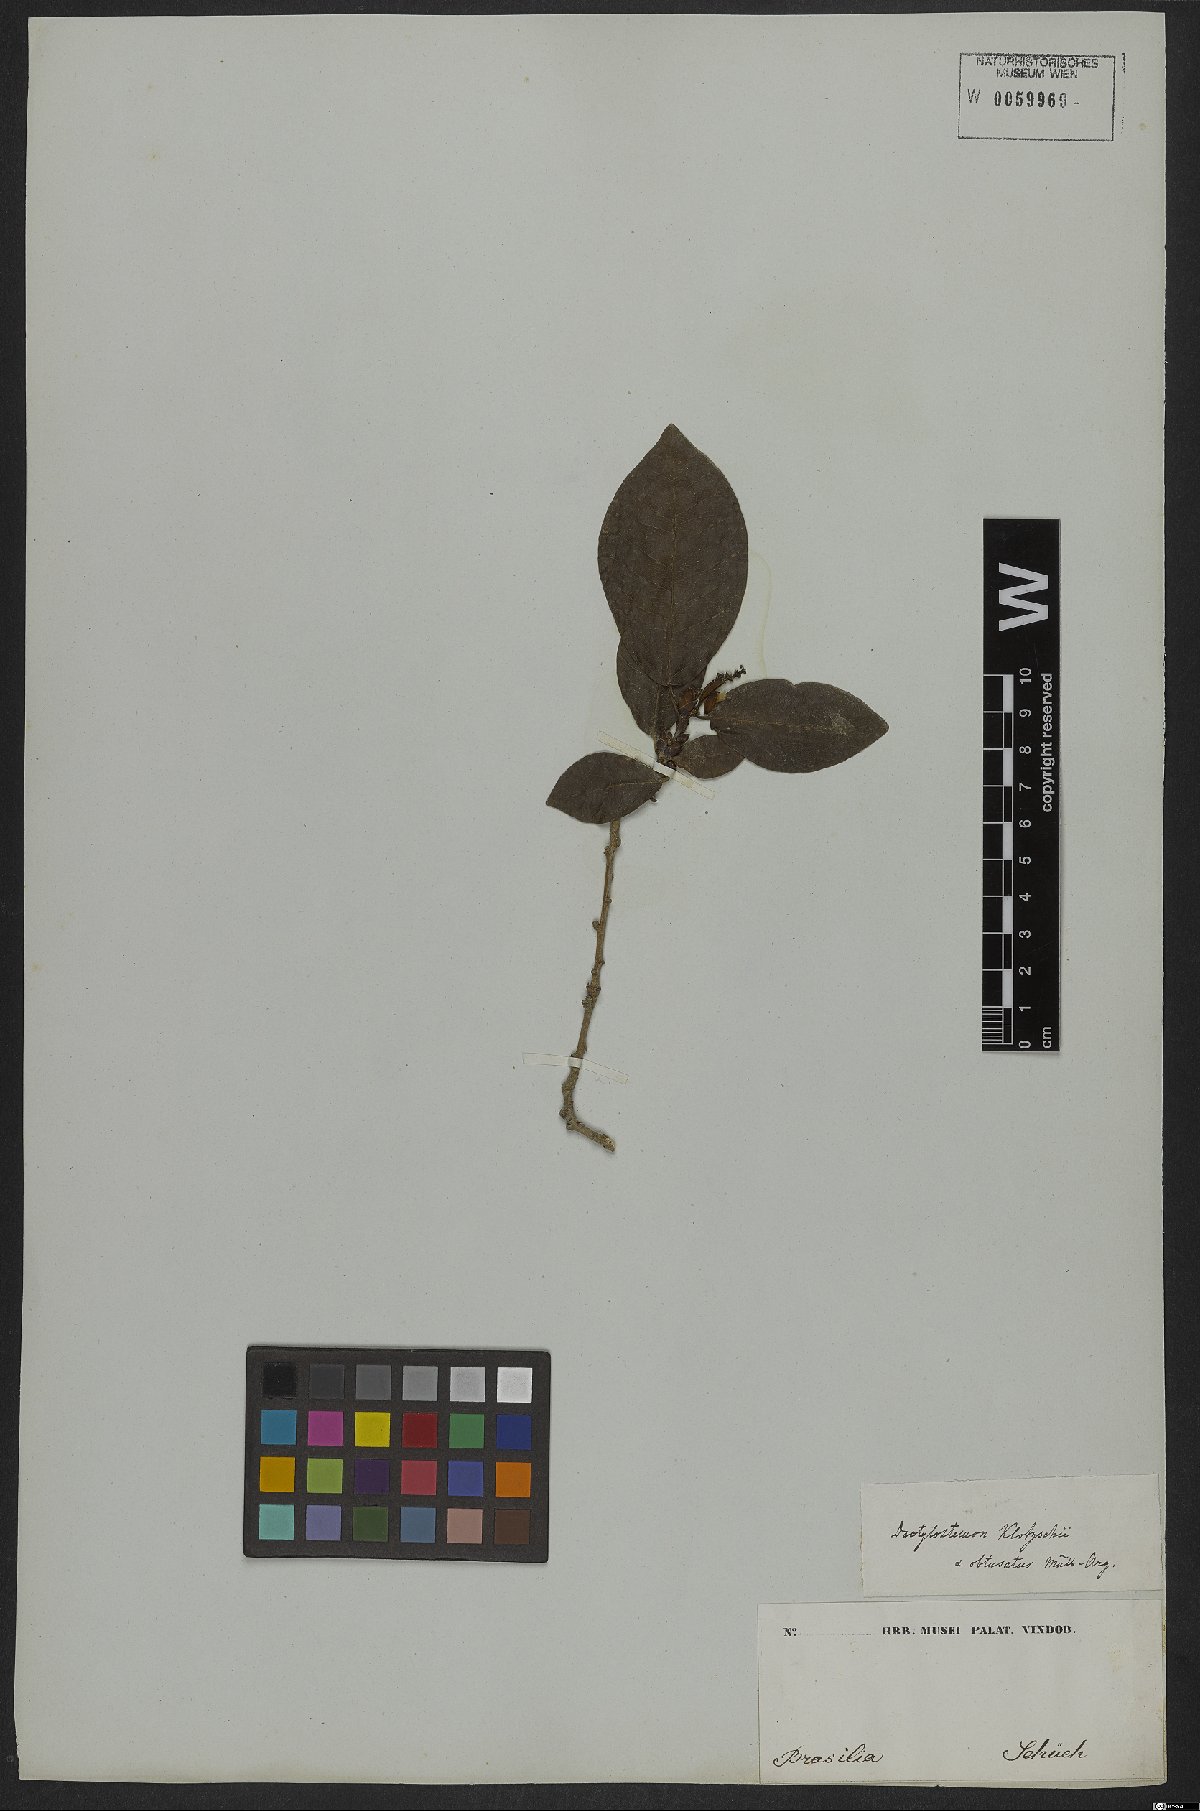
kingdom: Plantae
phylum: Tracheophyta
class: Magnoliopsida
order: Malpighiales
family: Euphorbiaceae
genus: Actinostemon
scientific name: Actinostemon klotzschii
